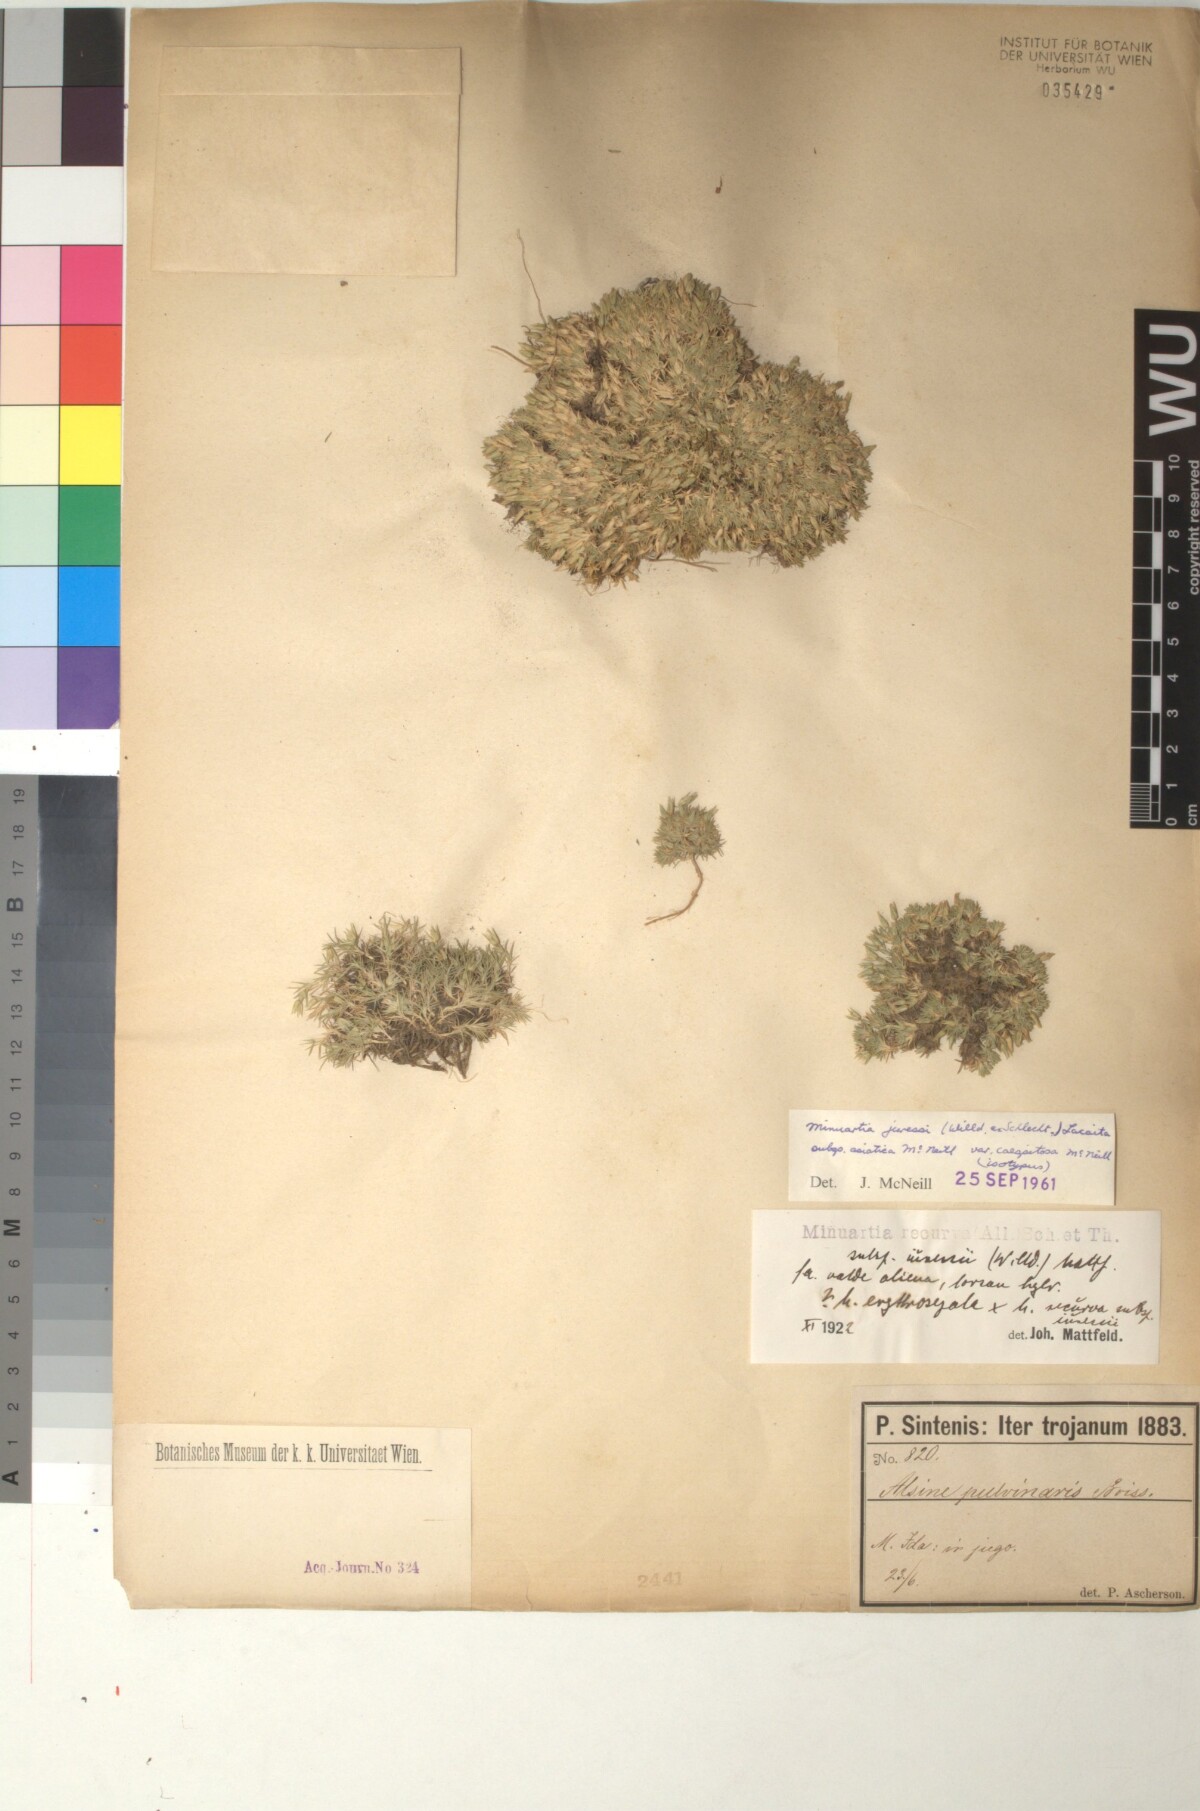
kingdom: Plantae
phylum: Tracheophyta
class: Magnoliopsida
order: Caryophyllales
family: Caryophyllaceae
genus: Minuartia
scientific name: Minuartia recurva
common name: Recurved sandwort
